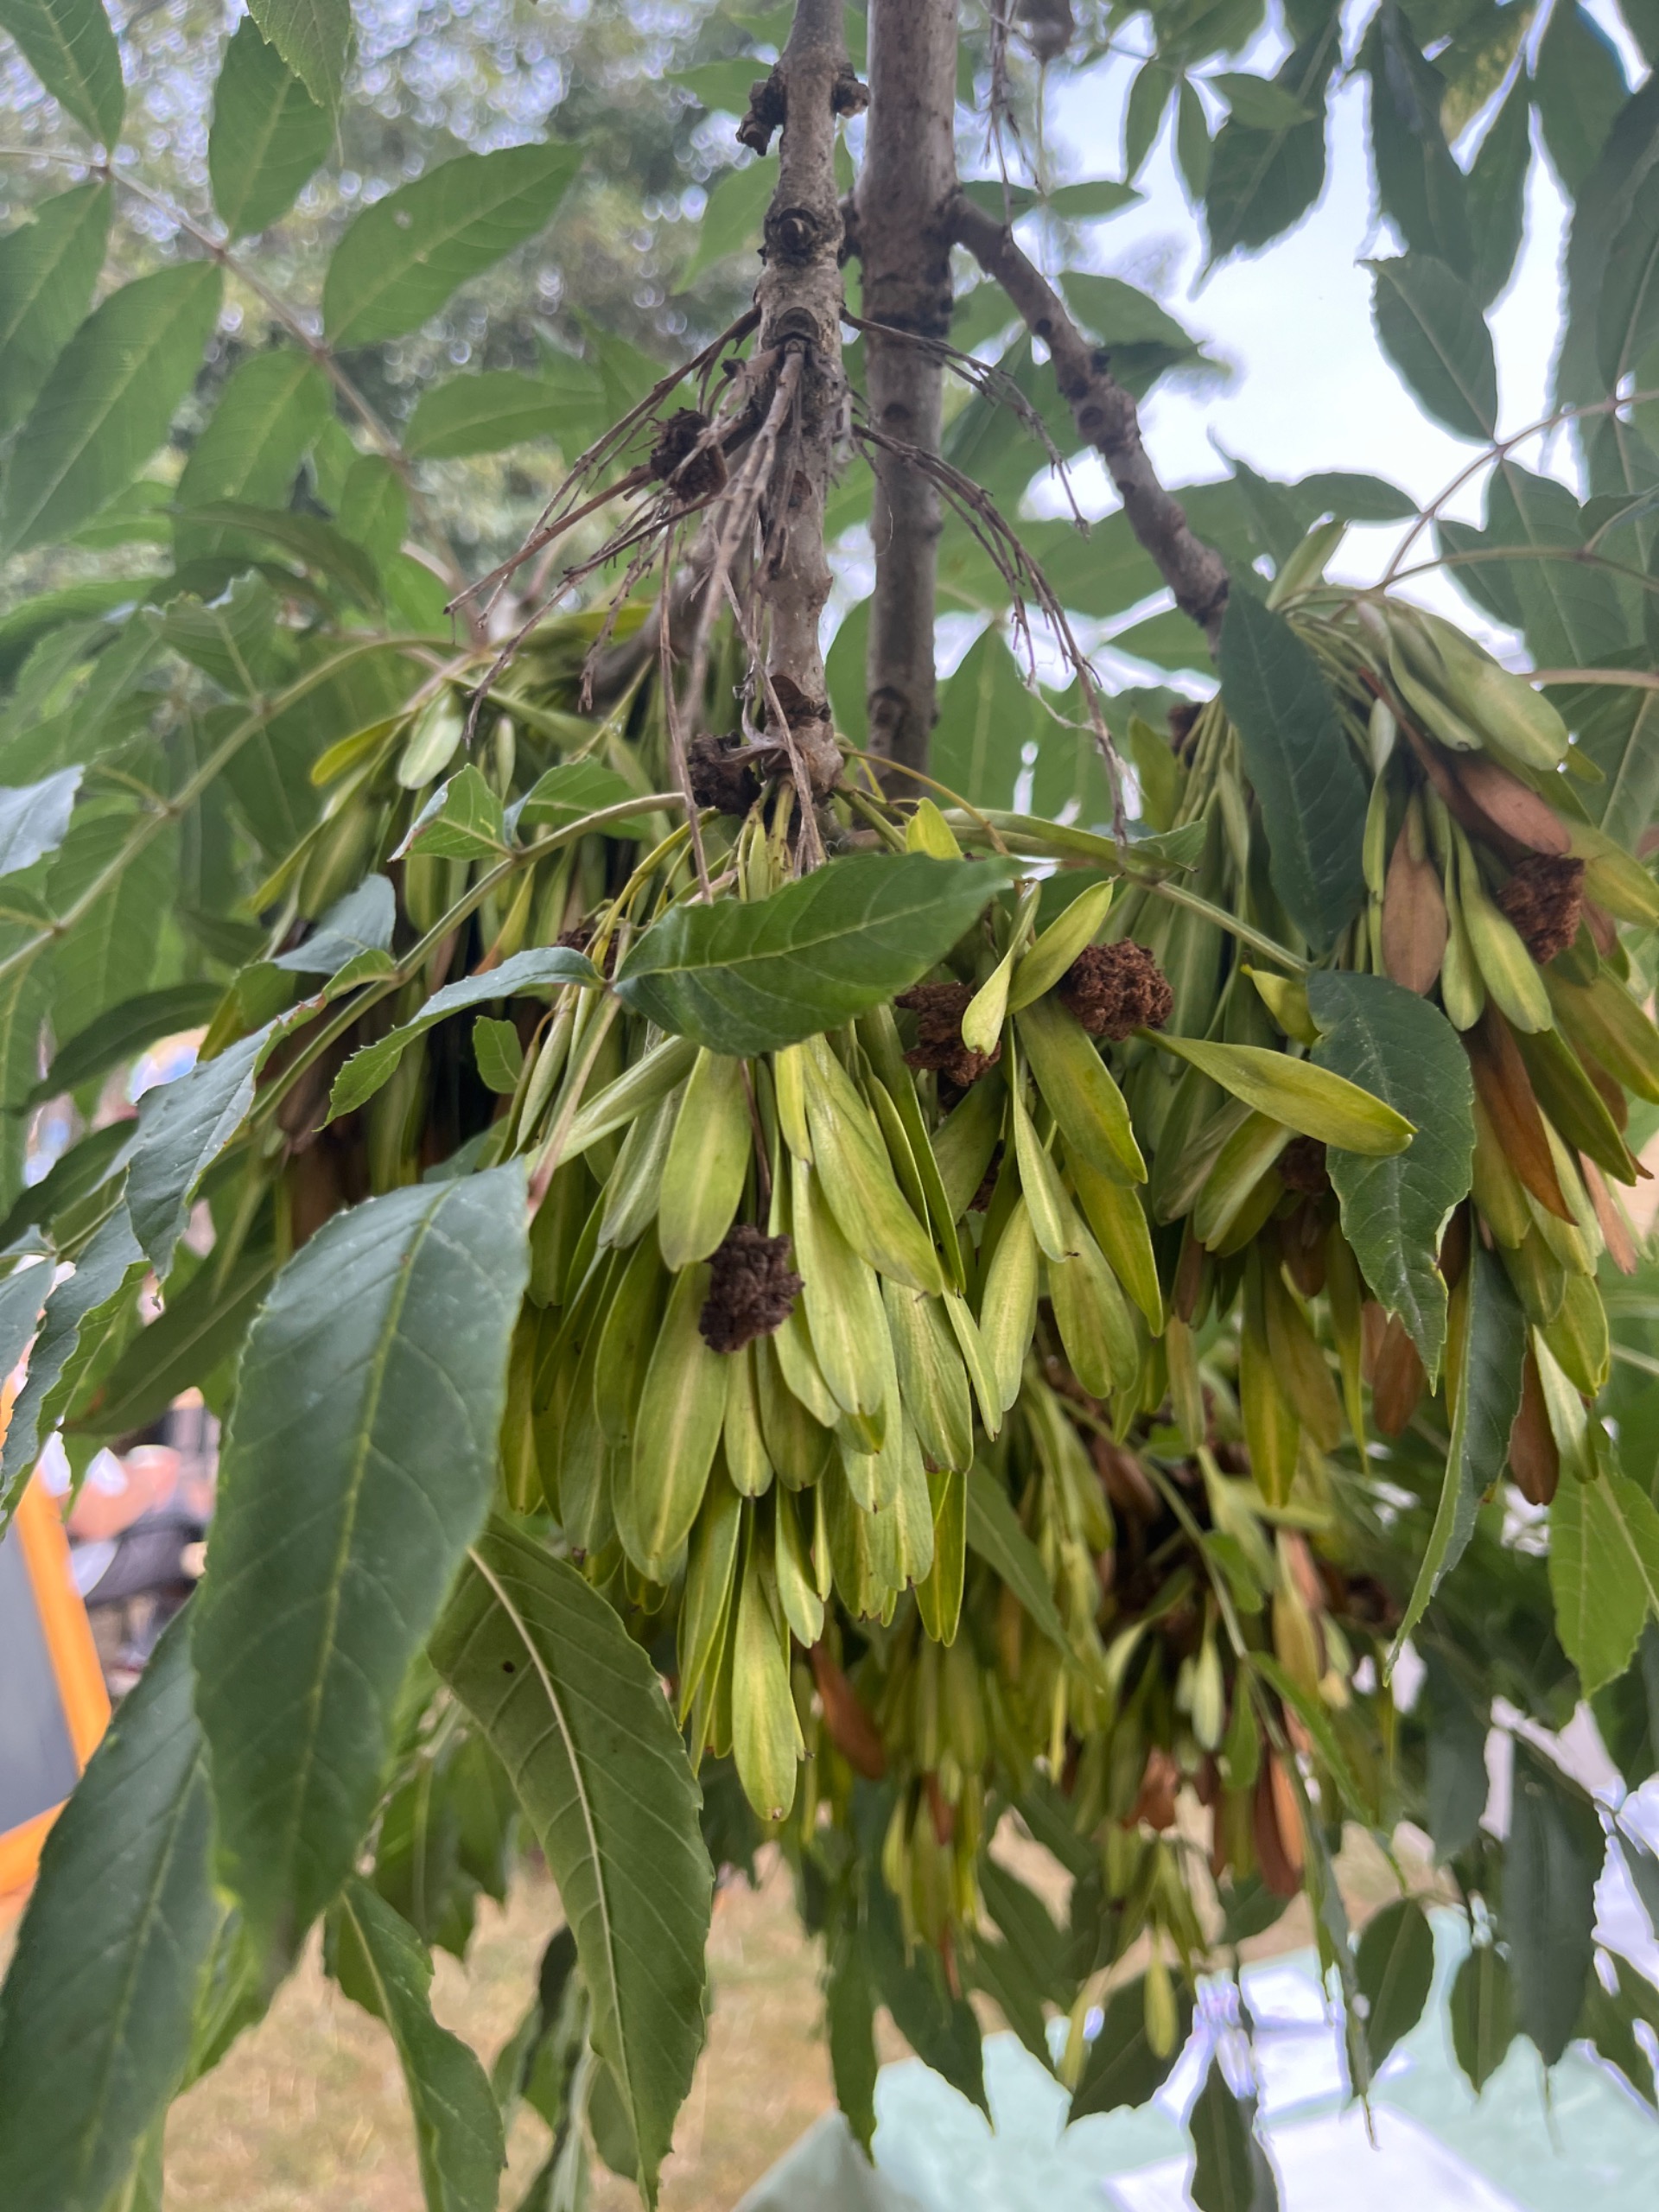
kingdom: Plantae
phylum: Tracheophyta
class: Magnoliopsida
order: Lamiales
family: Oleaceae
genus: Fraxinus
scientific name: Fraxinus excelsior
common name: Ask
